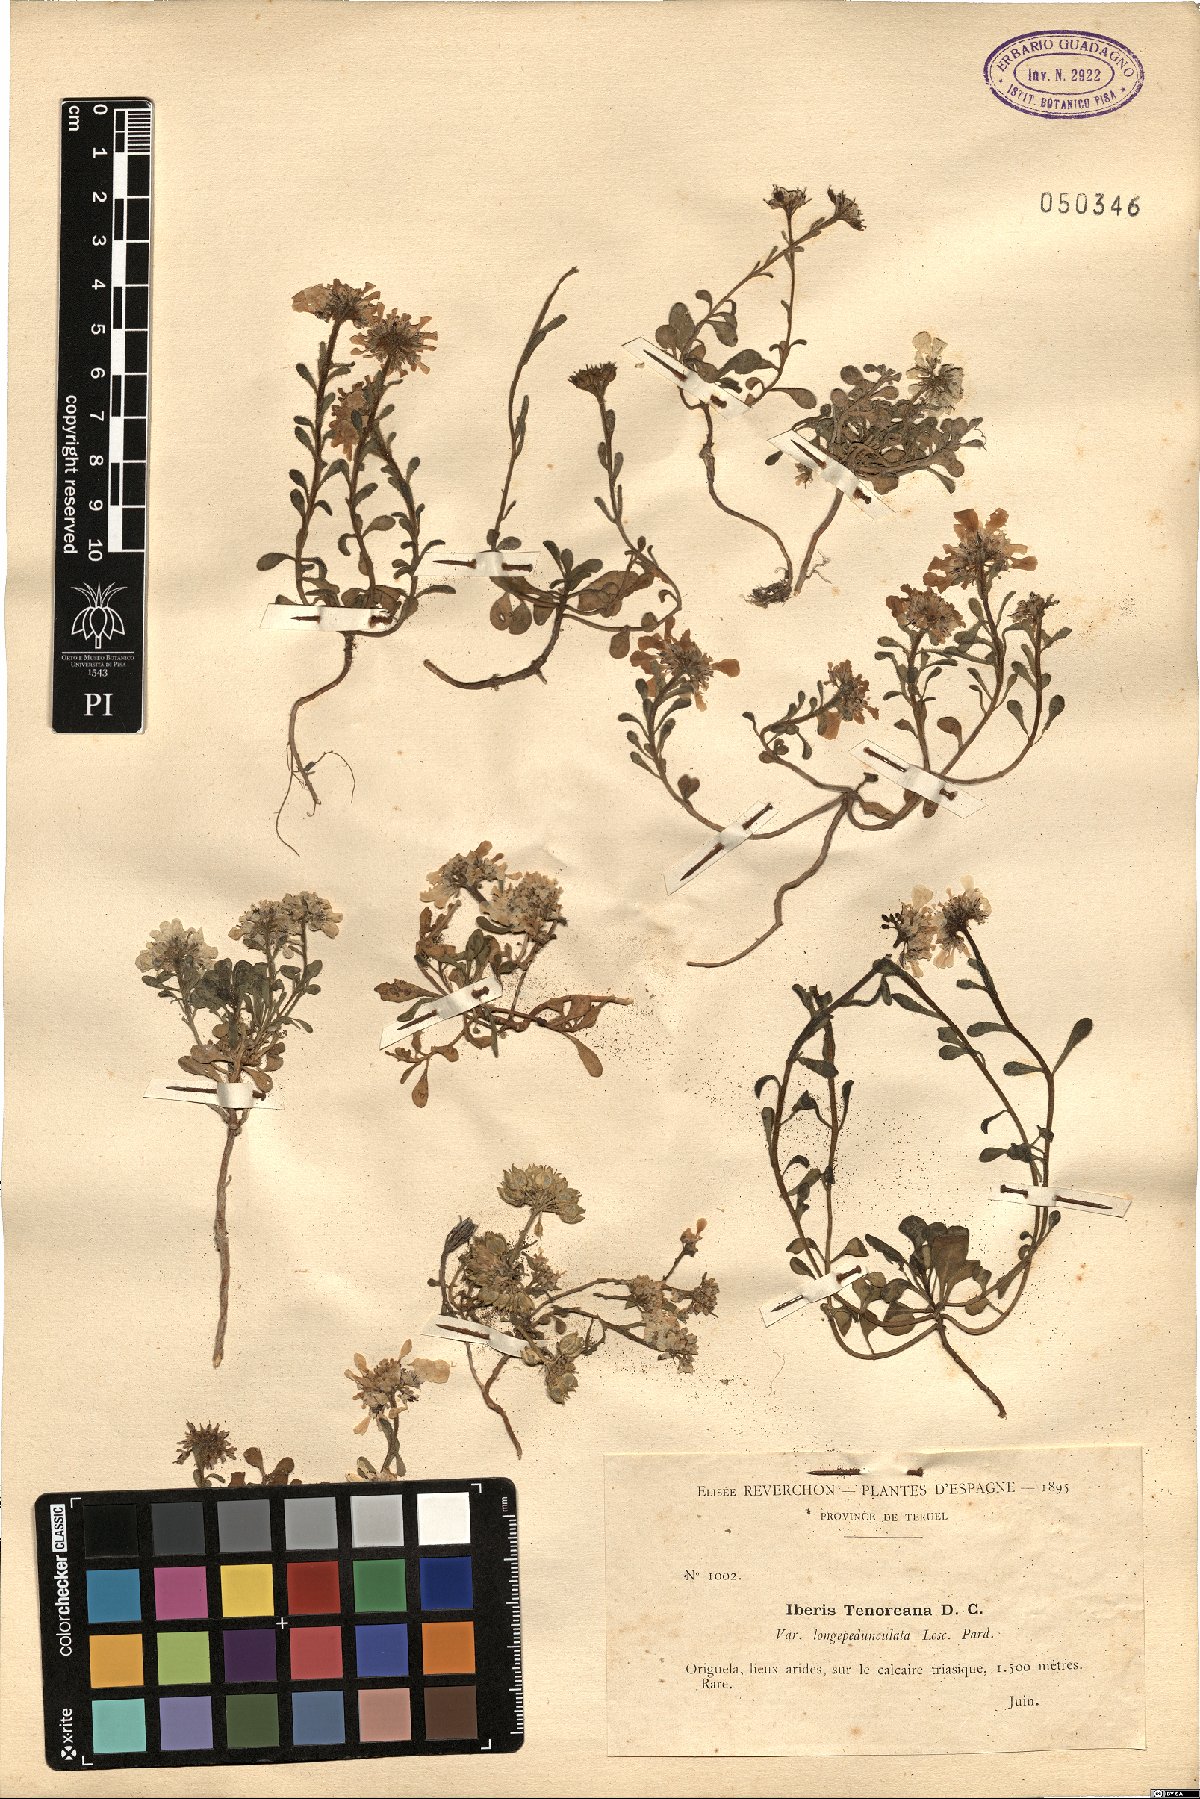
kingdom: Plantae
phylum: Tracheophyta
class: Magnoliopsida
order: Brassicales
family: Brassicaceae
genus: Iberis
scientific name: Iberis carnosa
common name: Pruit's candytuft
